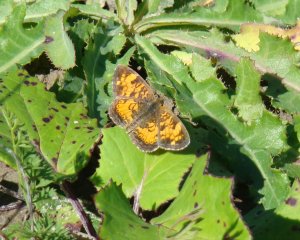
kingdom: Animalia
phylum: Arthropoda
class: Insecta
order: Lepidoptera
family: Nymphalidae
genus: Phyciodes
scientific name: Phyciodes tharos
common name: Northern Crescent
